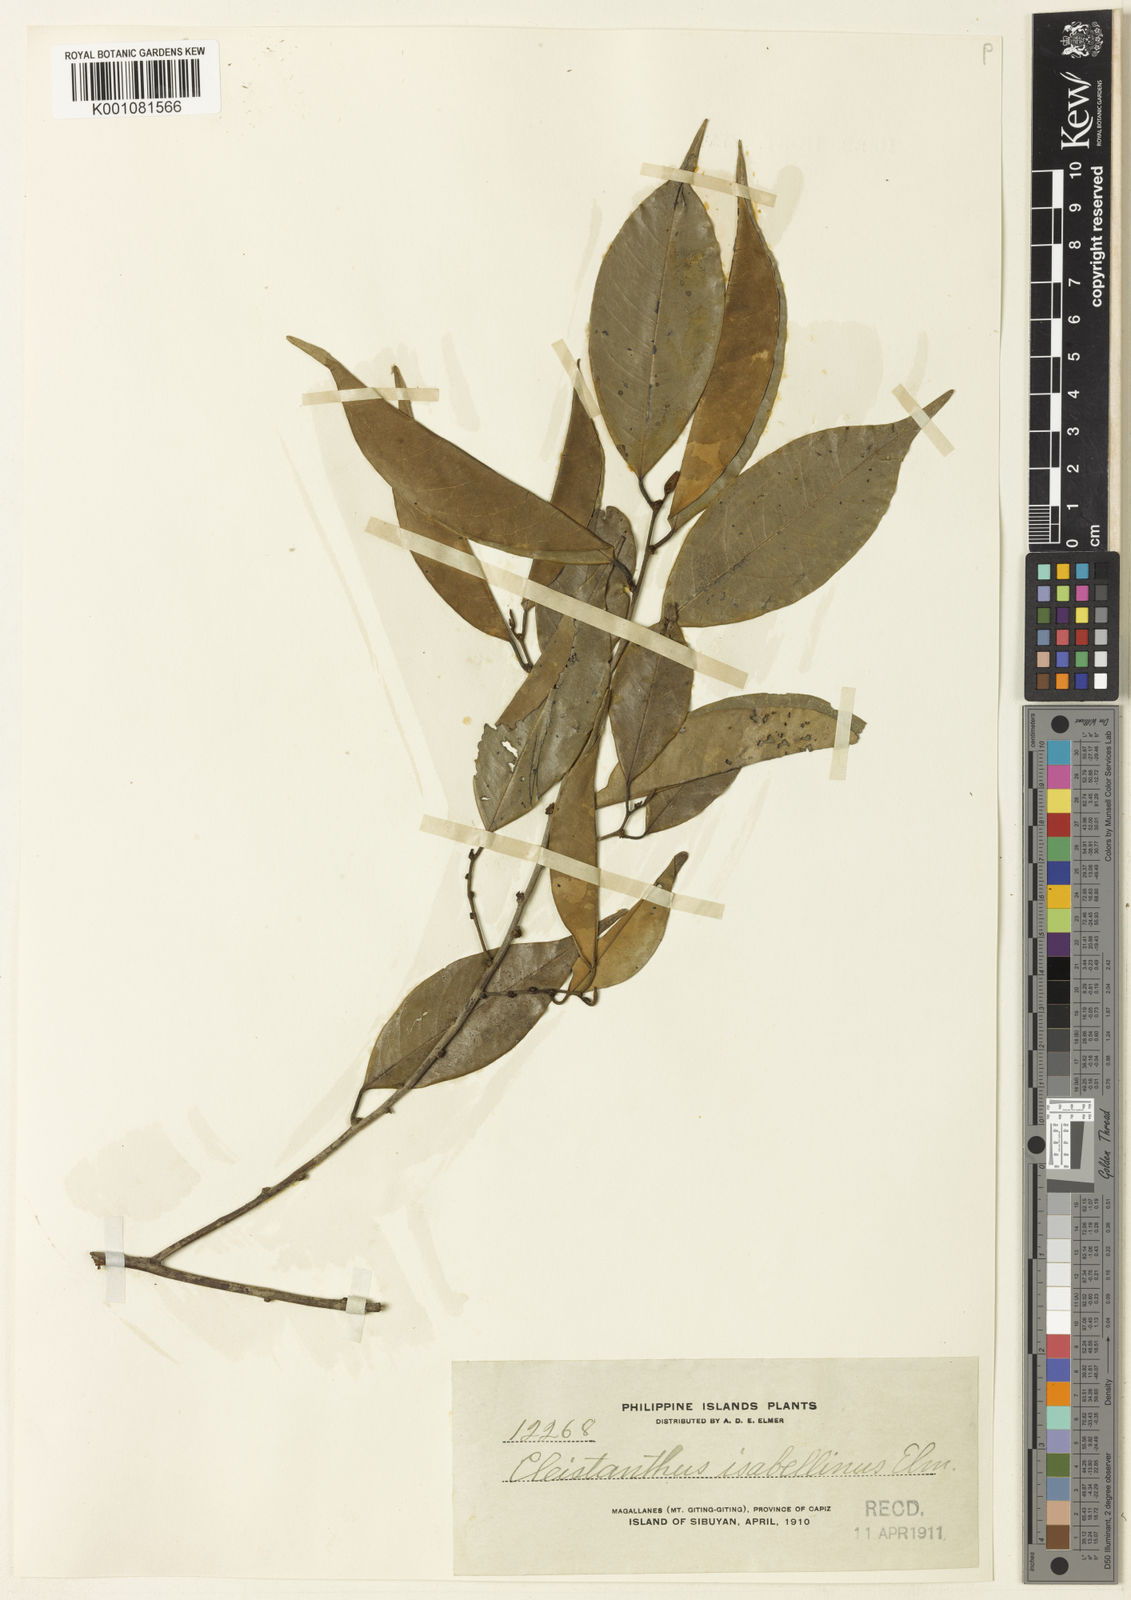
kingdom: Plantae
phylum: Tracheophyta
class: Magnoliopsida
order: Malpighiales
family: Phyllanthaceae
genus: Cleistanthus
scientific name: Cleistanthus isabellinus
